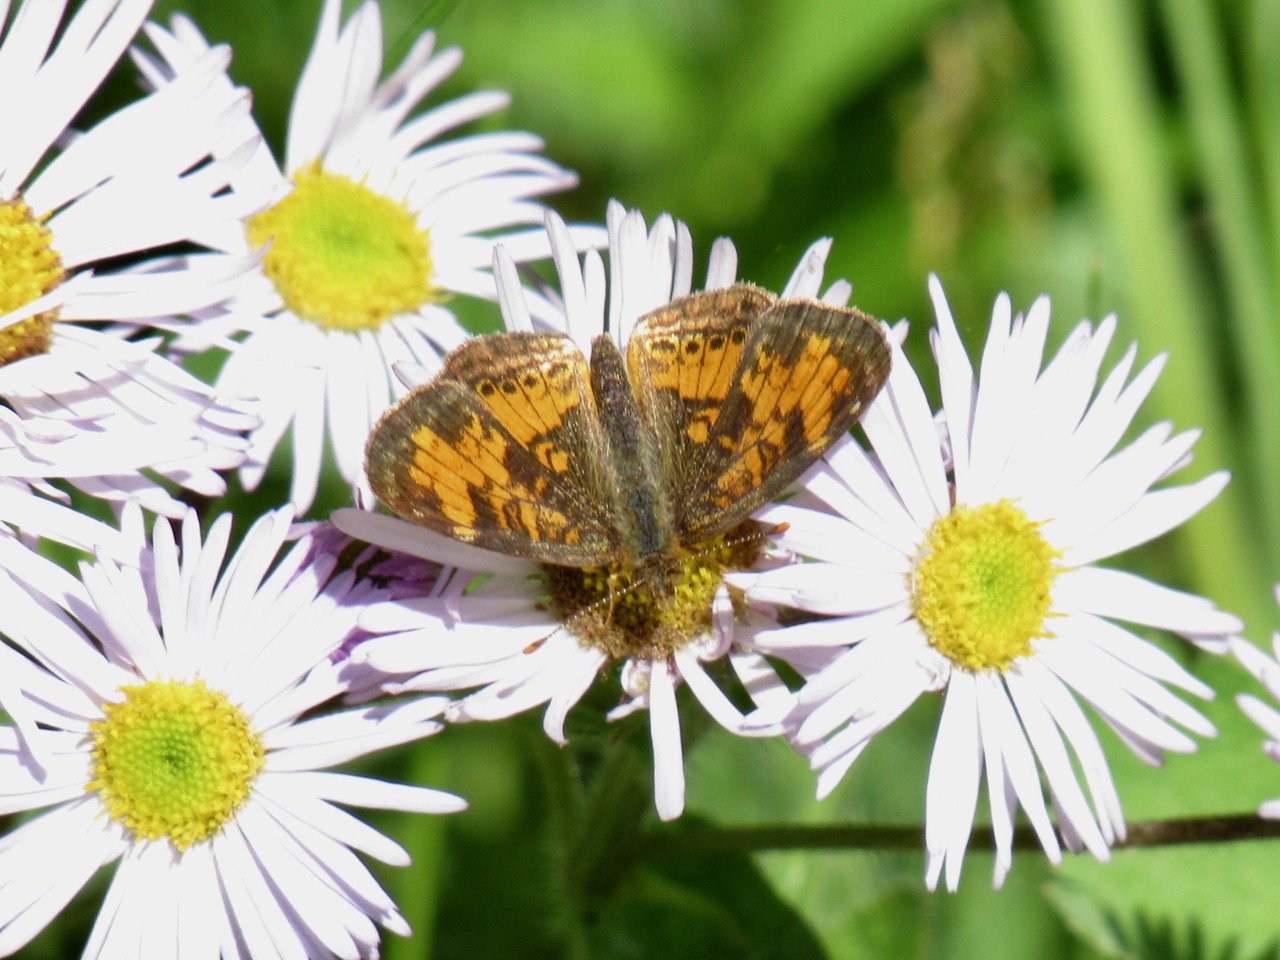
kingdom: Animalia
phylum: Arthropoda
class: Insecta
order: Lepidoptera
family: Nymphalidae
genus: Phyciodes
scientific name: Phyciodes tharos
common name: Pearl Crescent
